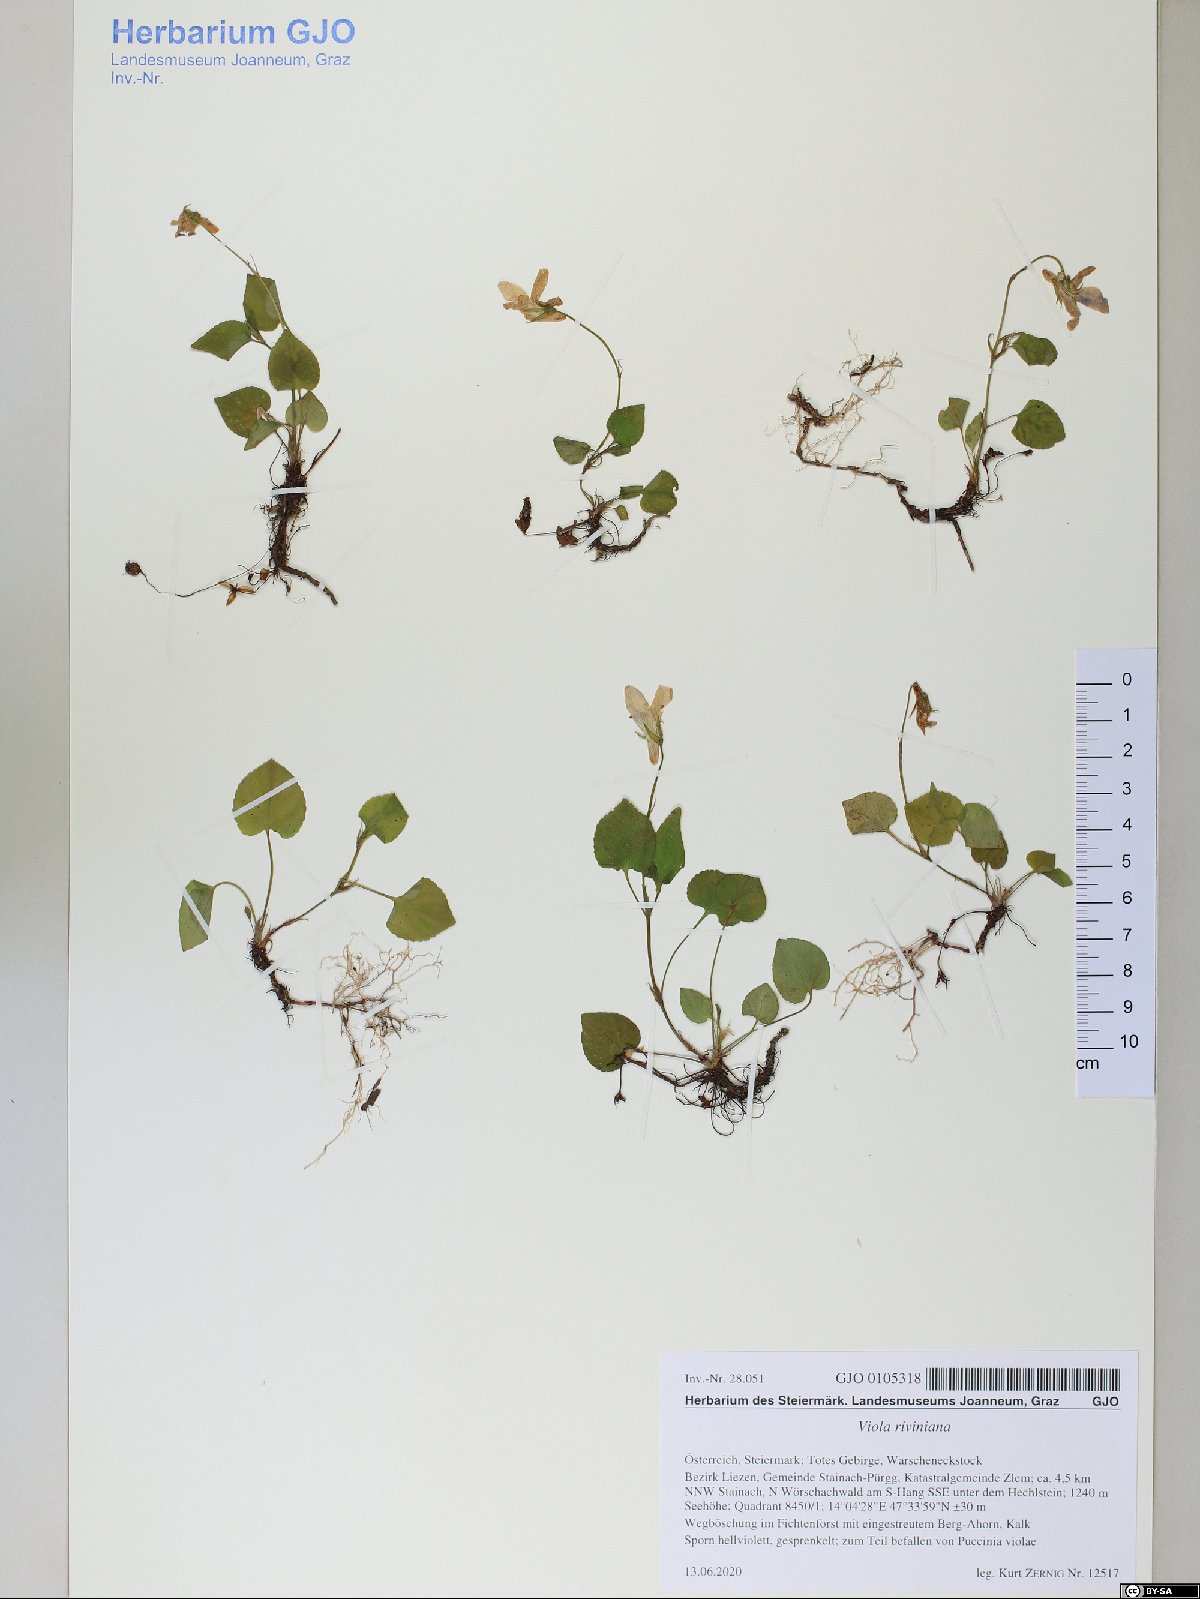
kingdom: Plantae
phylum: Tracheophyta
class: Magnoliopsida
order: Malpighiales
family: Violaceae
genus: Viola
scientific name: Viola riviniana
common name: Common dog-violet
